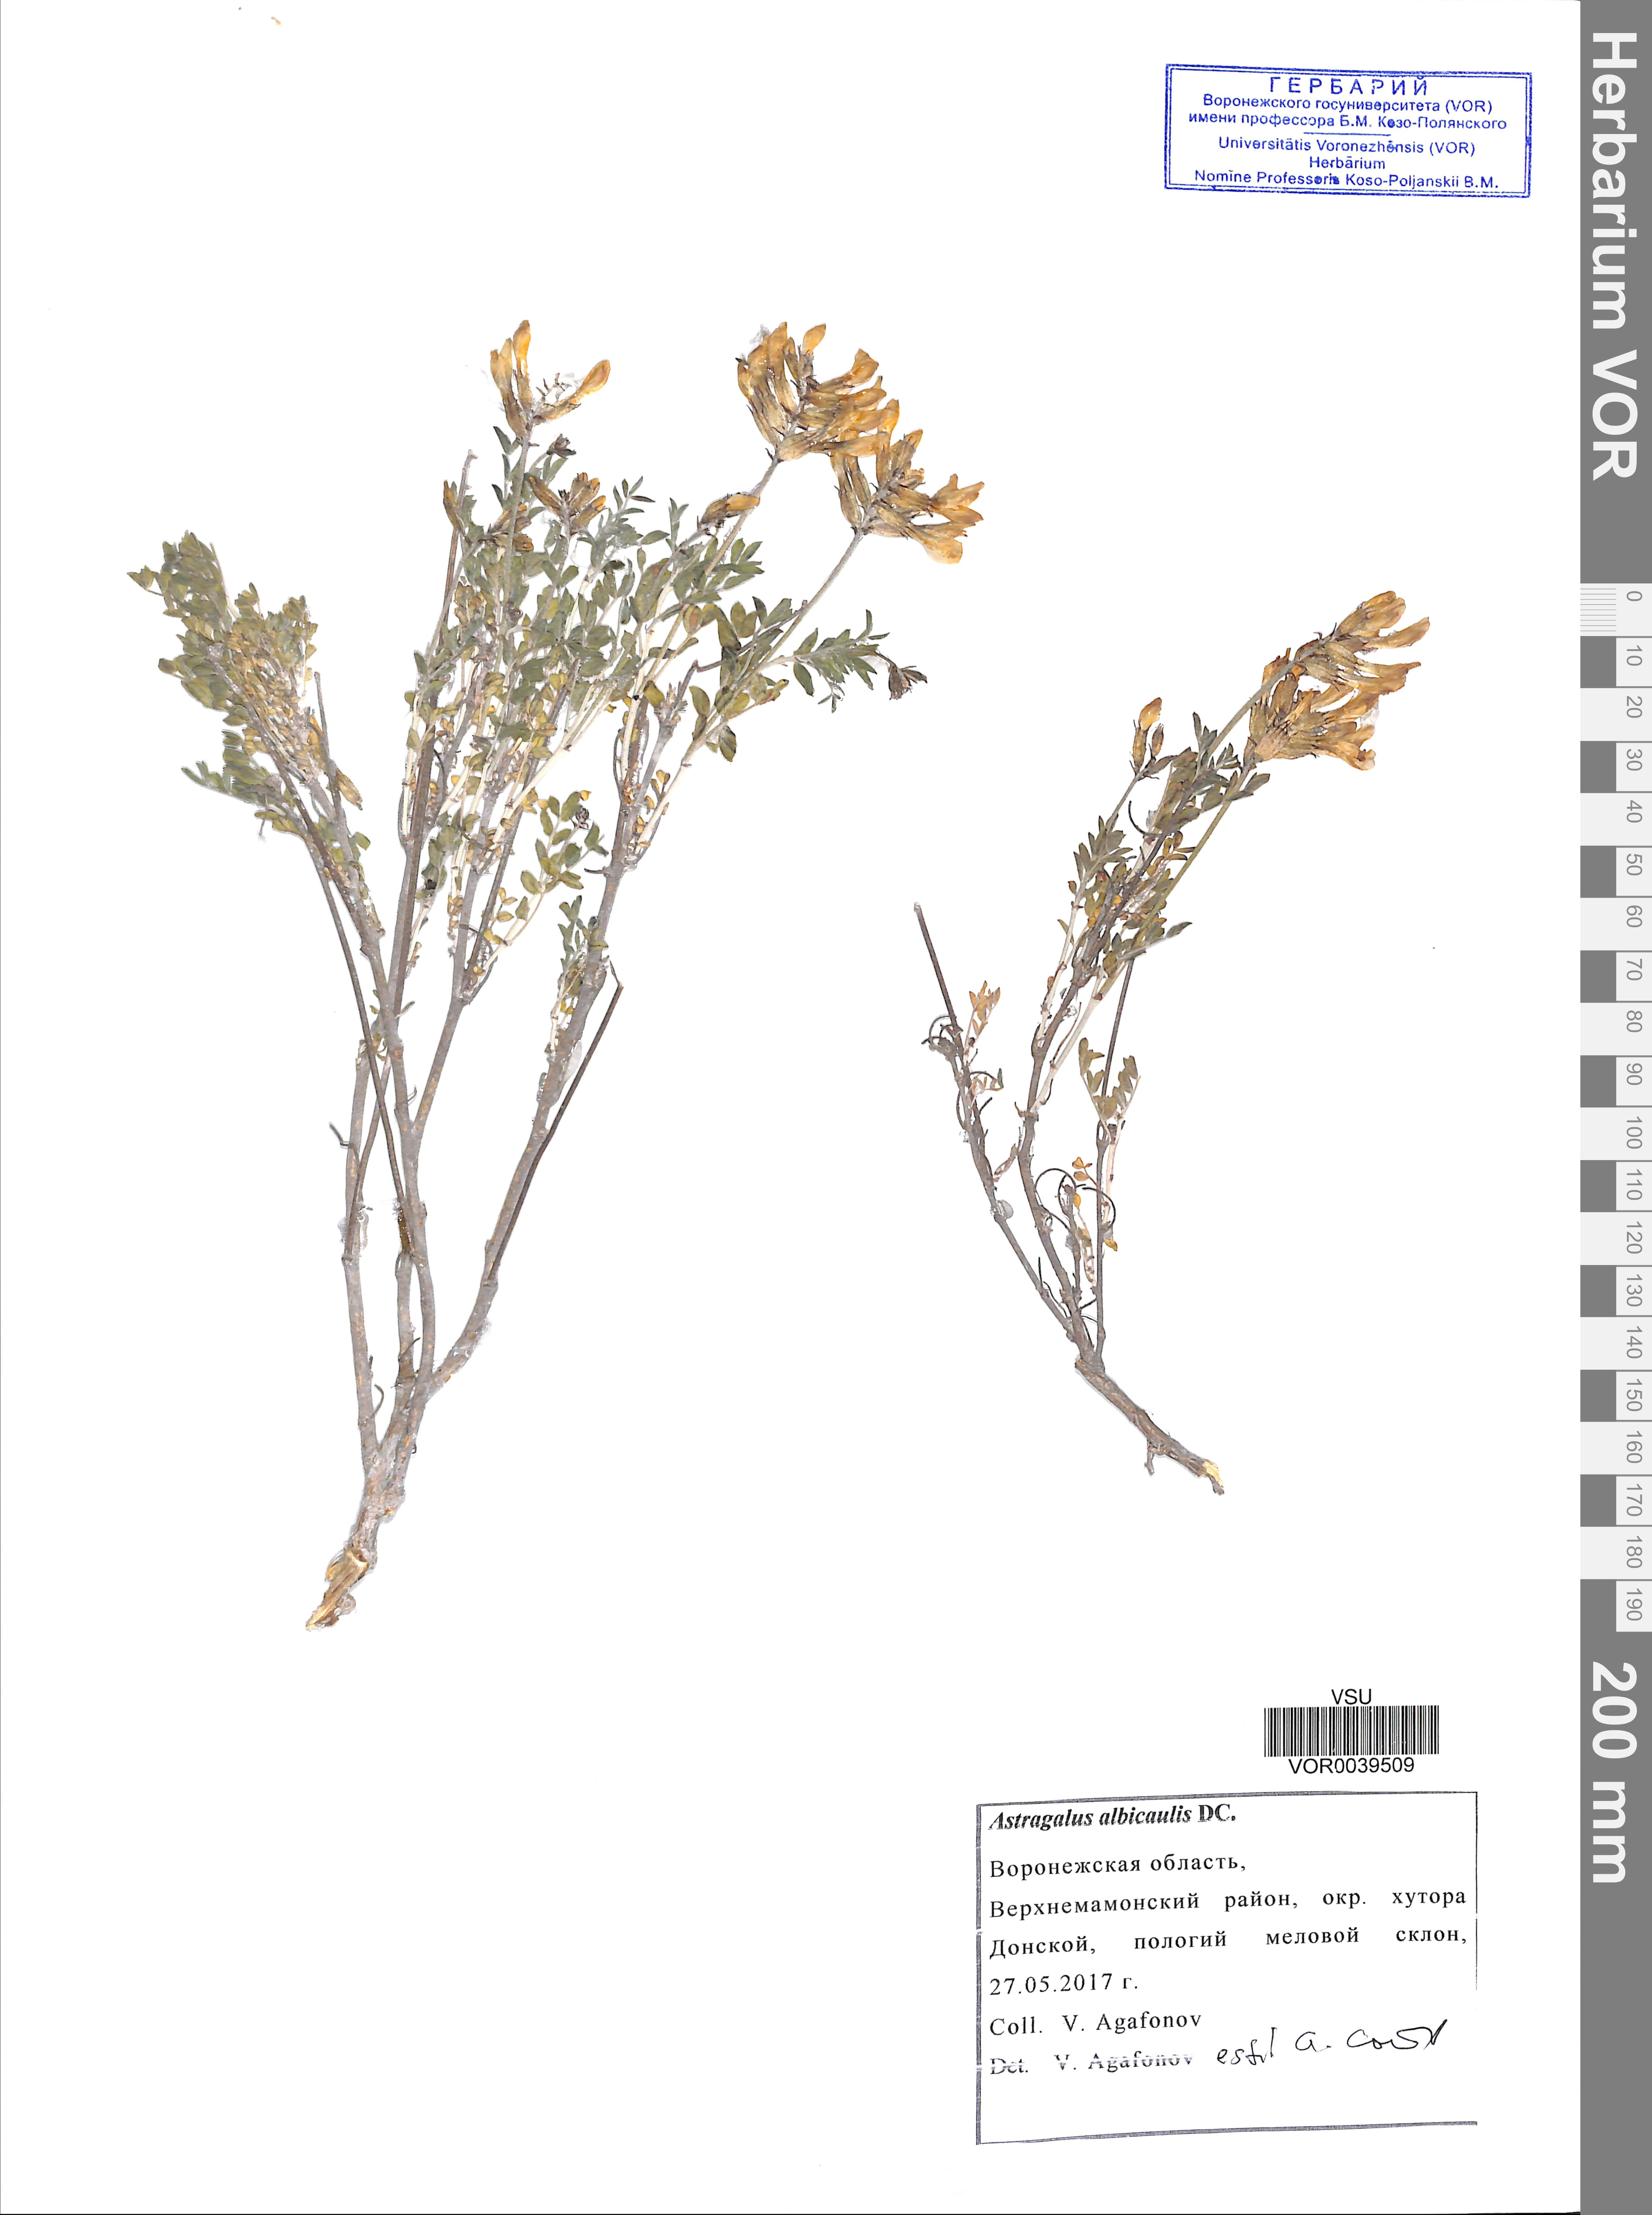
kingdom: Plantae
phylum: Tracheophyta
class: Magnoliopsida
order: Fabales
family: Fabaceae
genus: Astragalus
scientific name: Astragalus albicaulis
